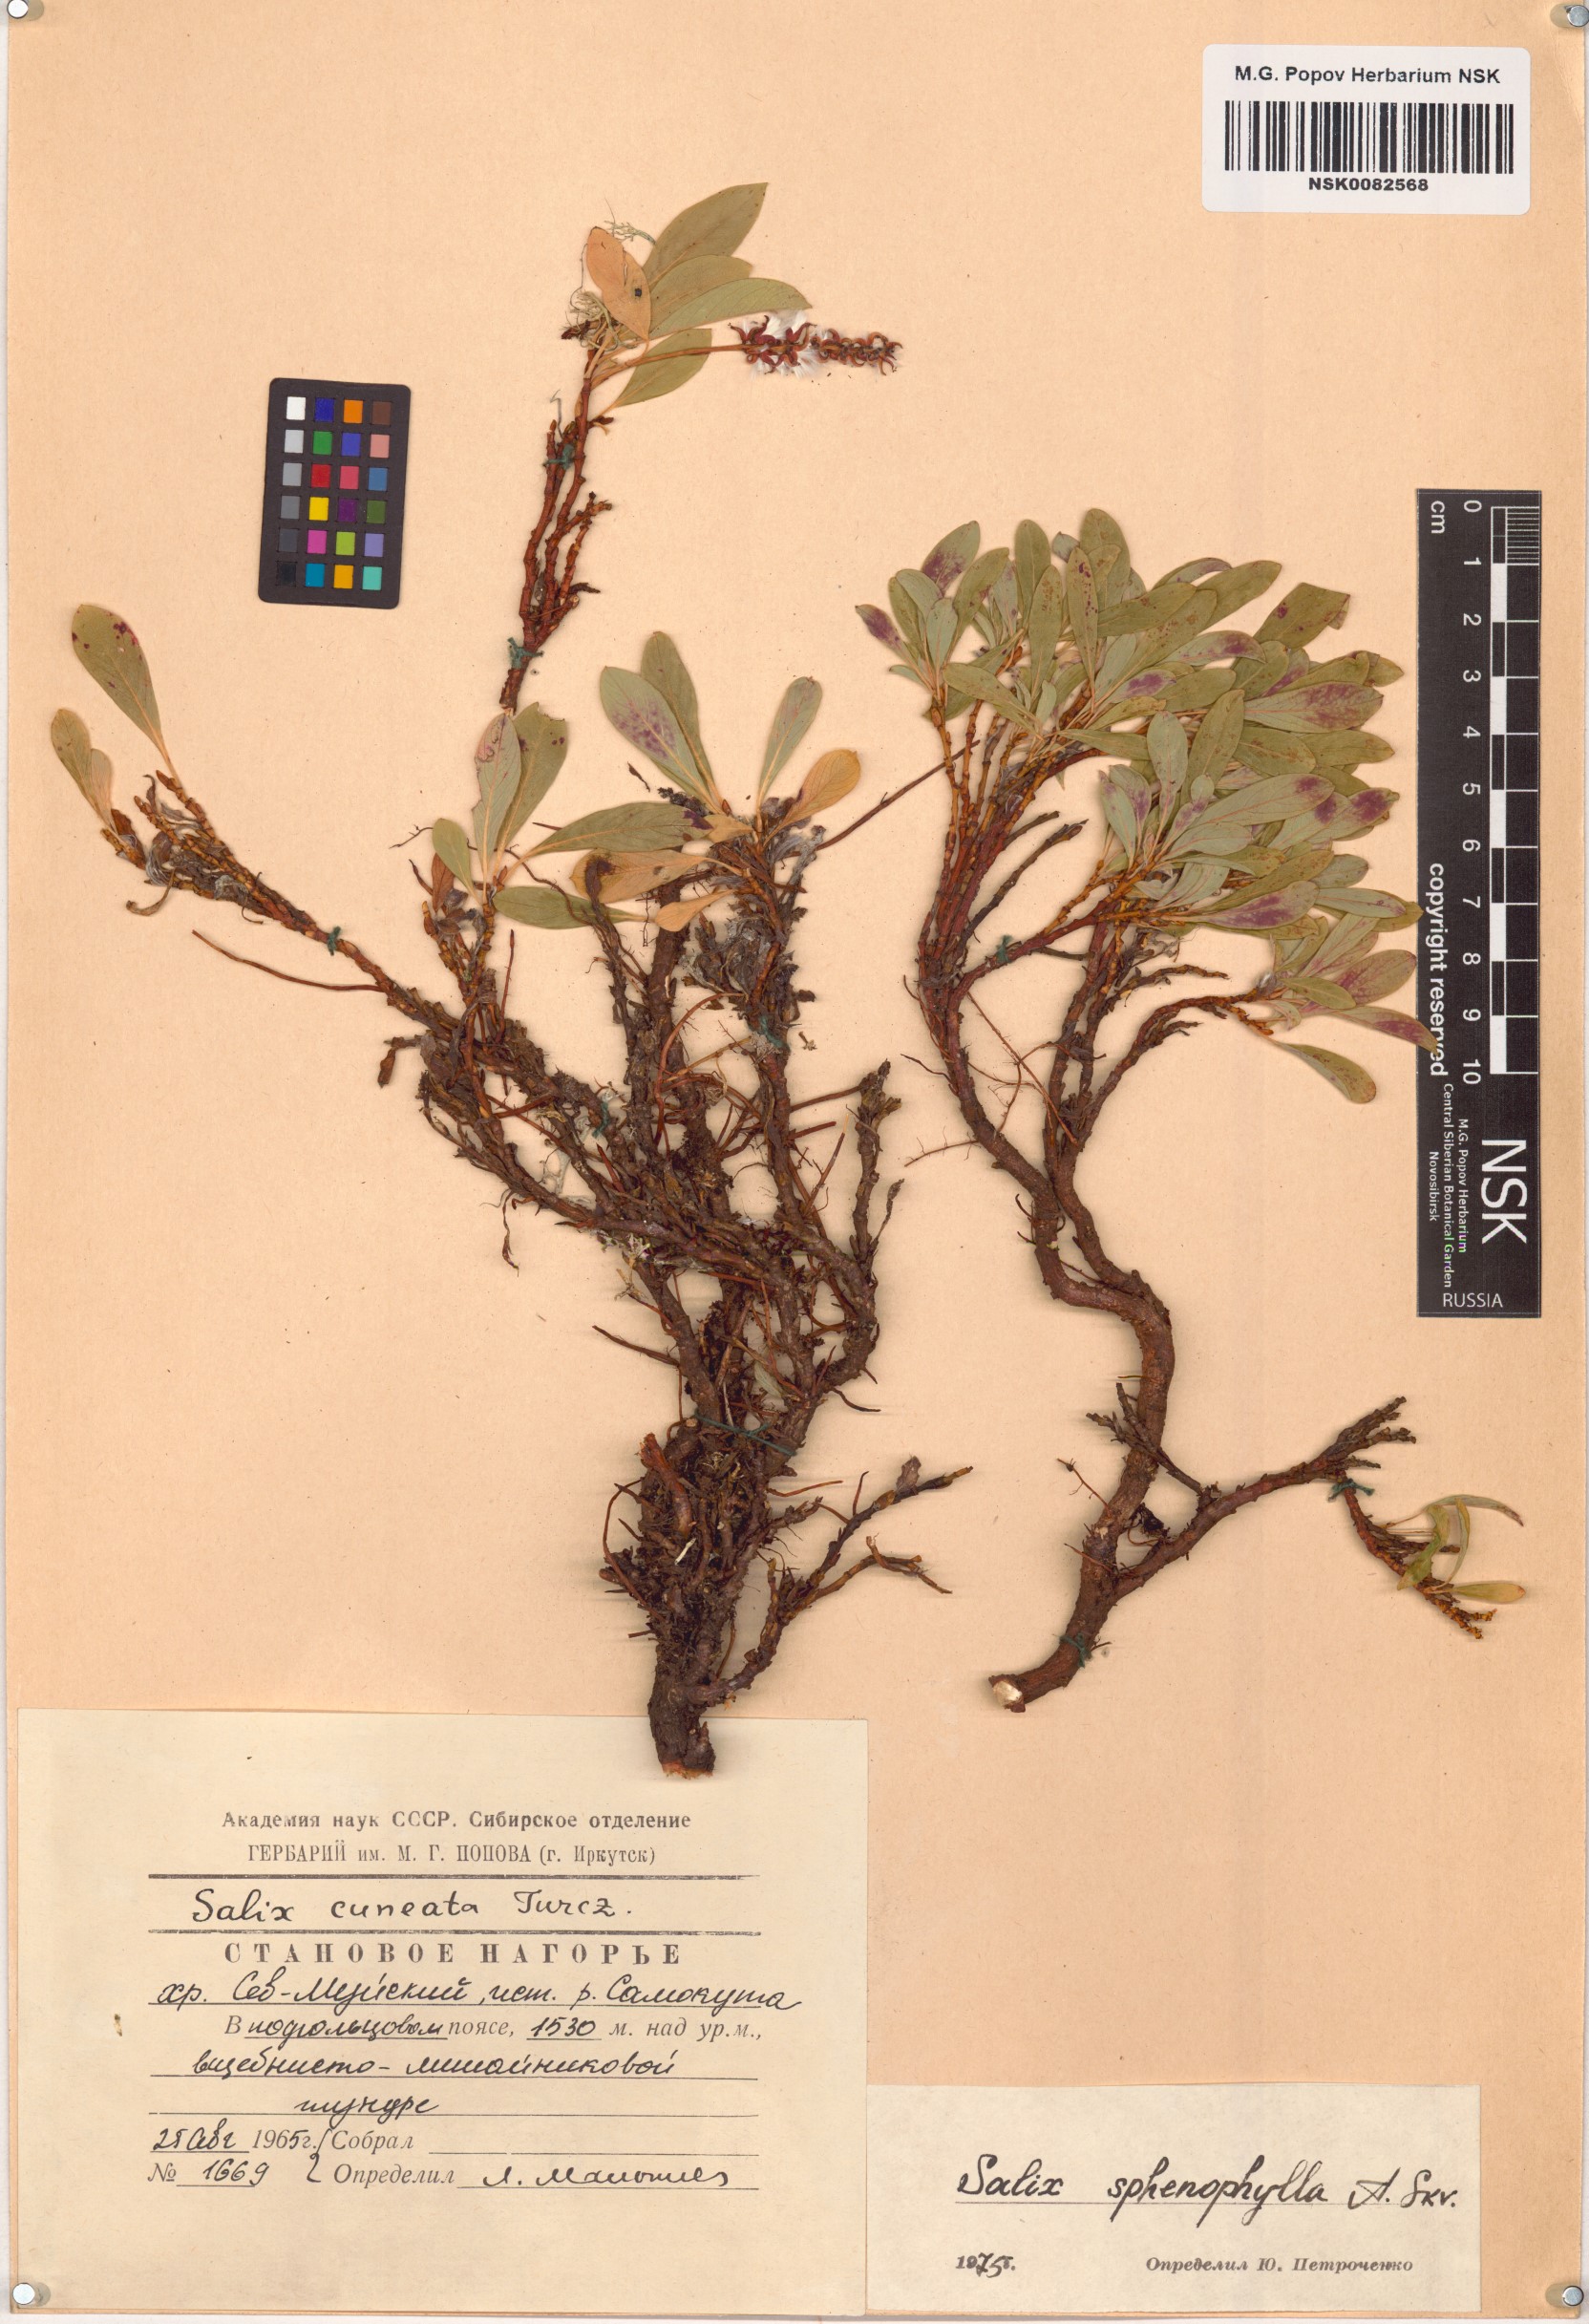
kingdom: Plantae
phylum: Tracheophyta
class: Magnoliopsida
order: Malpighiales
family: Salicaceae
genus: Salix
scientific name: Salix sphenophylla
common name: Wedge-leaved willow
